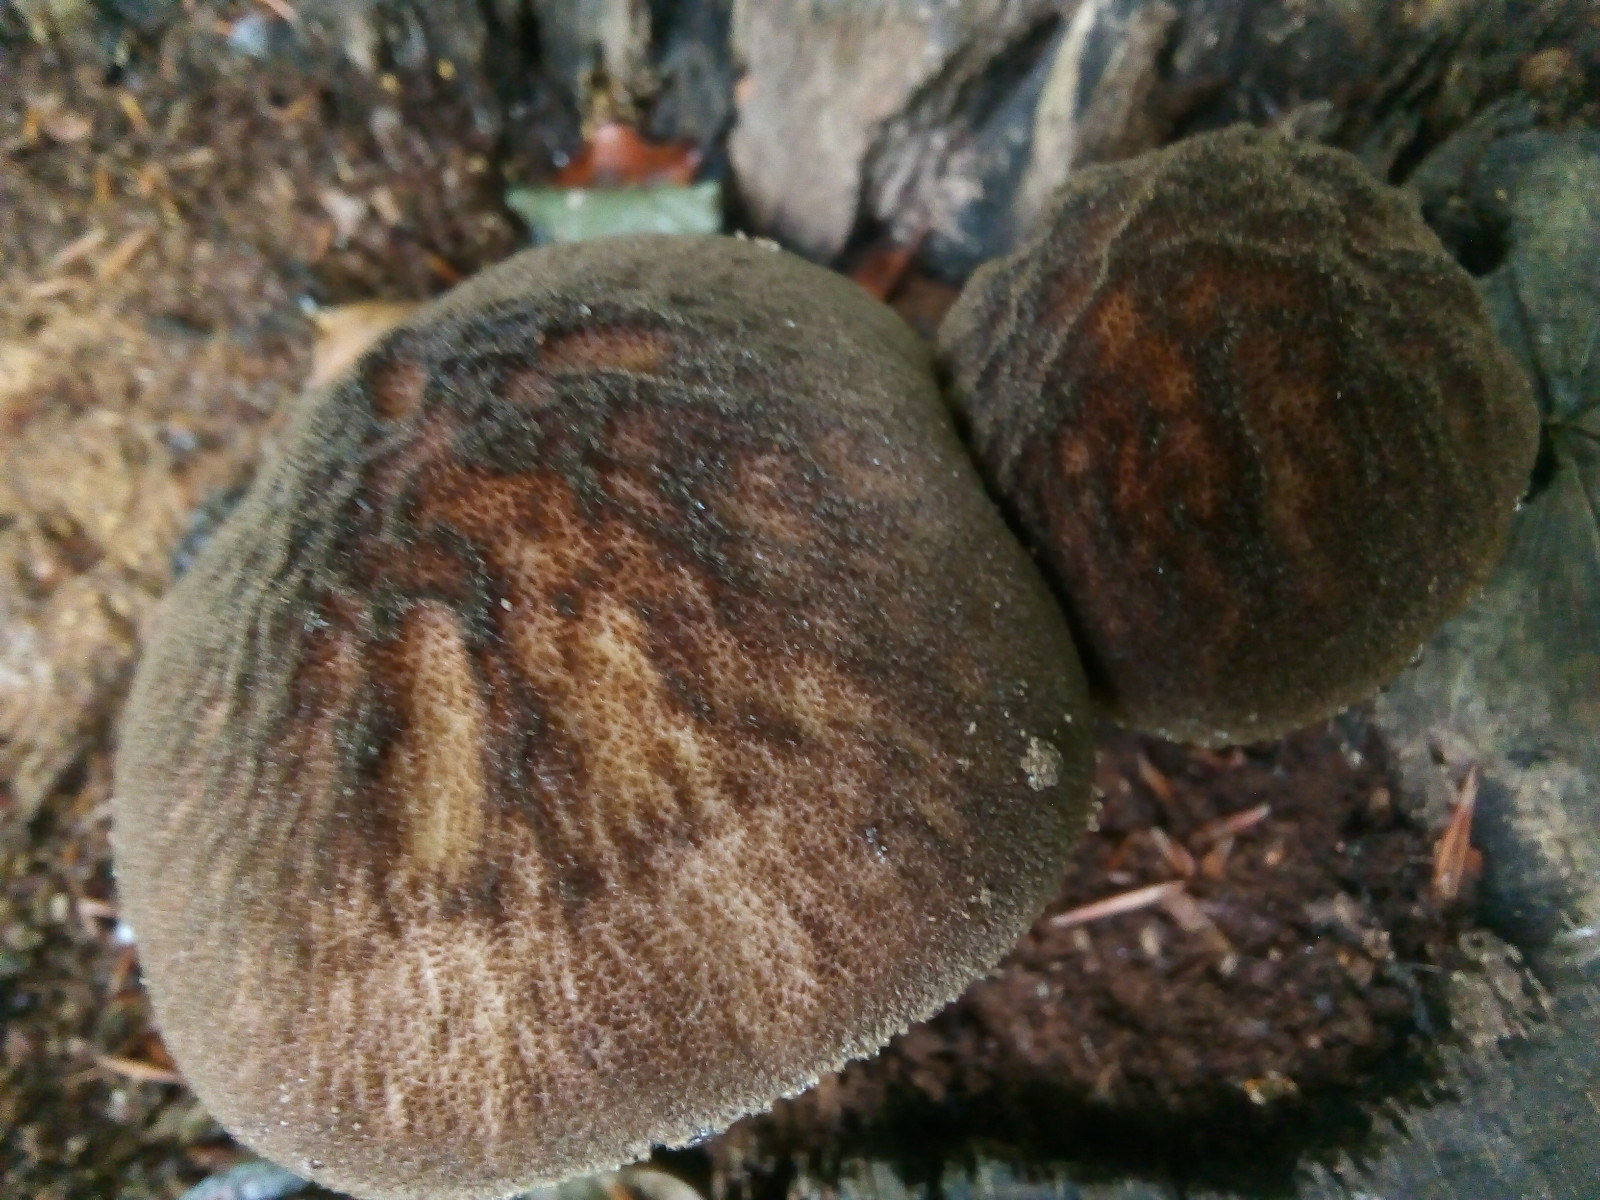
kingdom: Fungi
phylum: Basidiomycota
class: Agaricomycetes
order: Agaricales
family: Pluteaceae
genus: Pluteus
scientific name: Pluteus umbrosus
